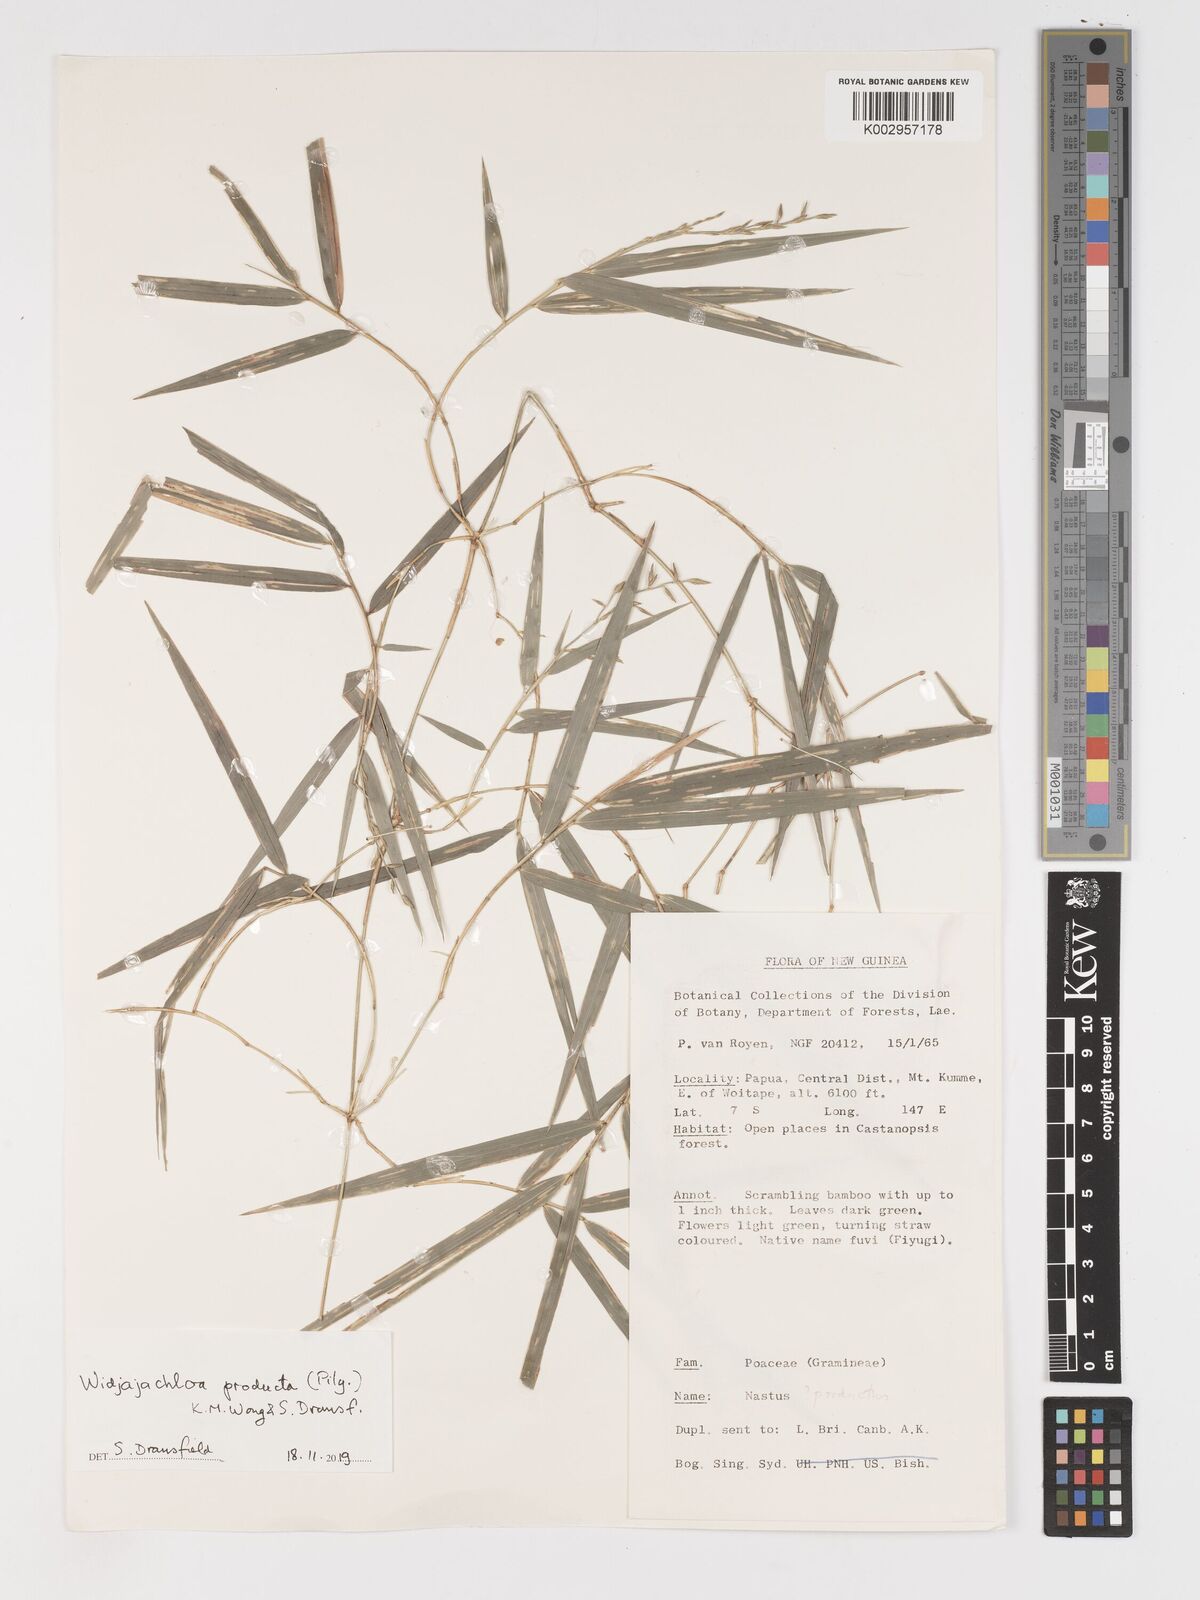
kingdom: Plantae
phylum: Tracheophyta
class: Liliopsida
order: Poales
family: Poaceae
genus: Widjajachloa
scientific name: Widjajachloa producta
